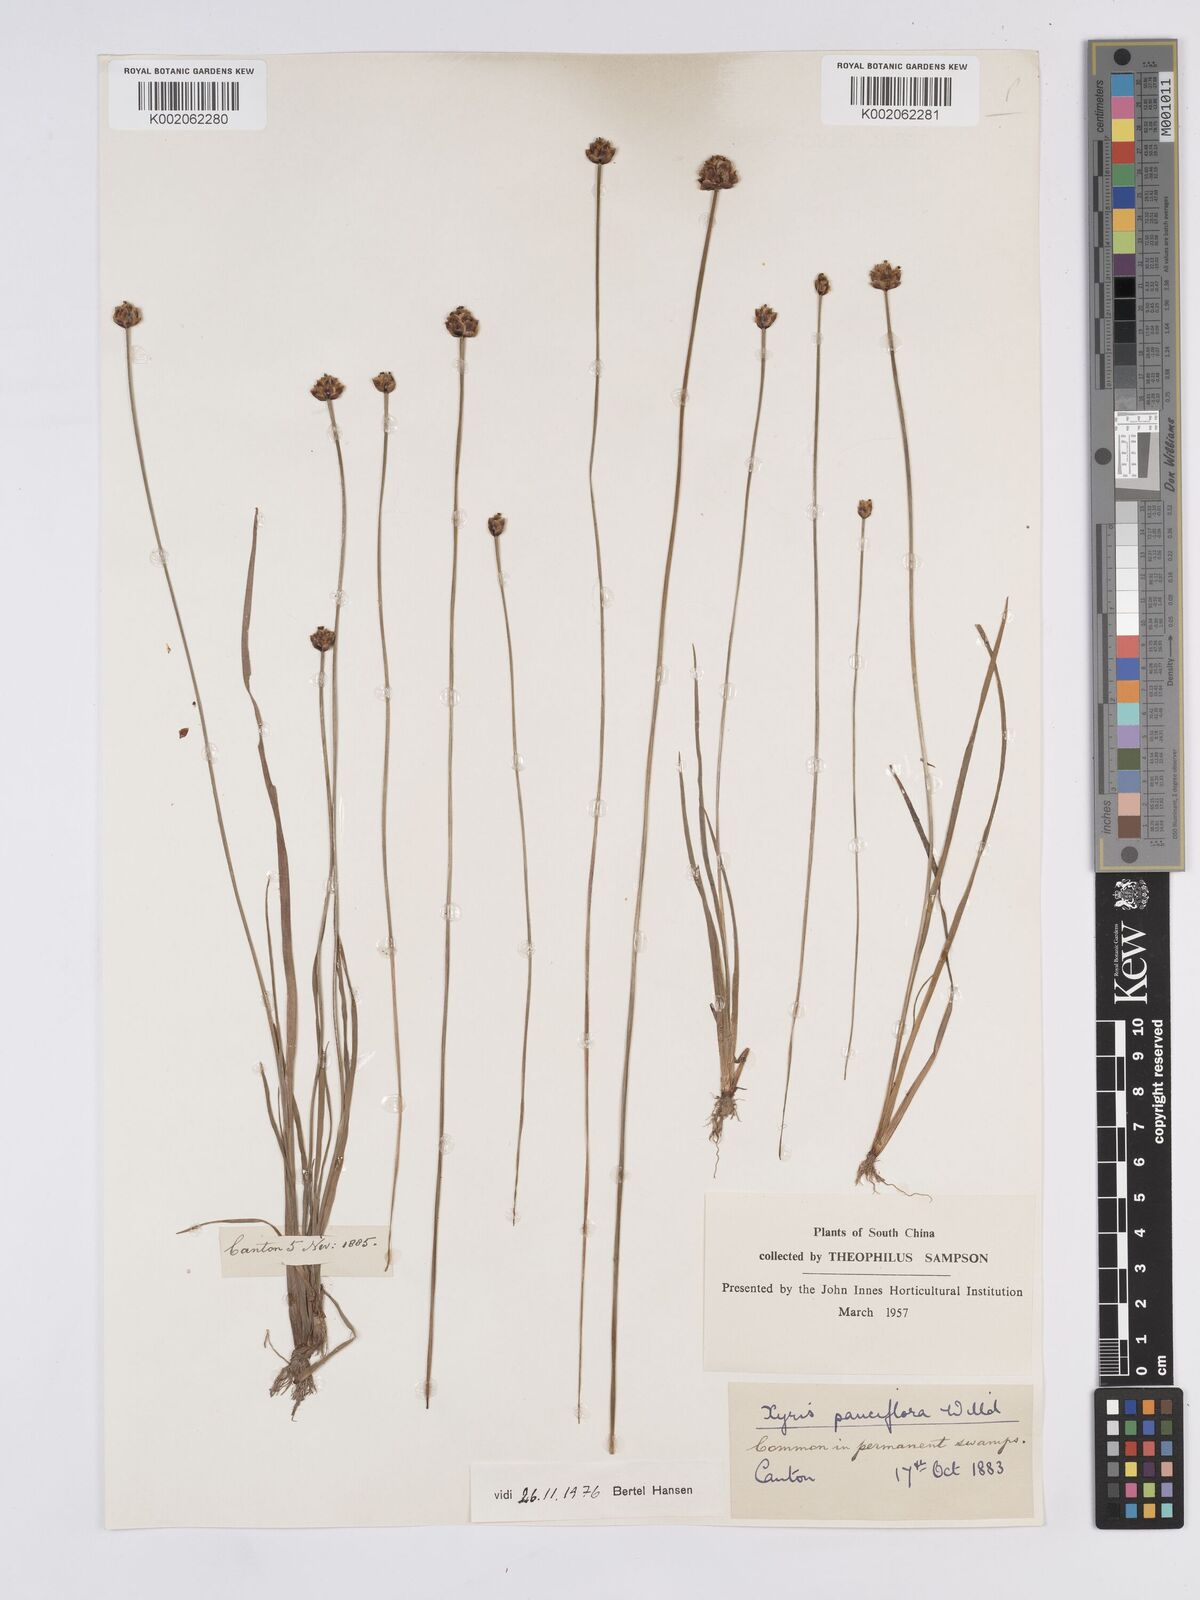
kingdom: Plantae
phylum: Tracheophyta
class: Liliopsida
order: Poales
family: Xyridaceae
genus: Xyris
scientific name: Xyris pauciflora
